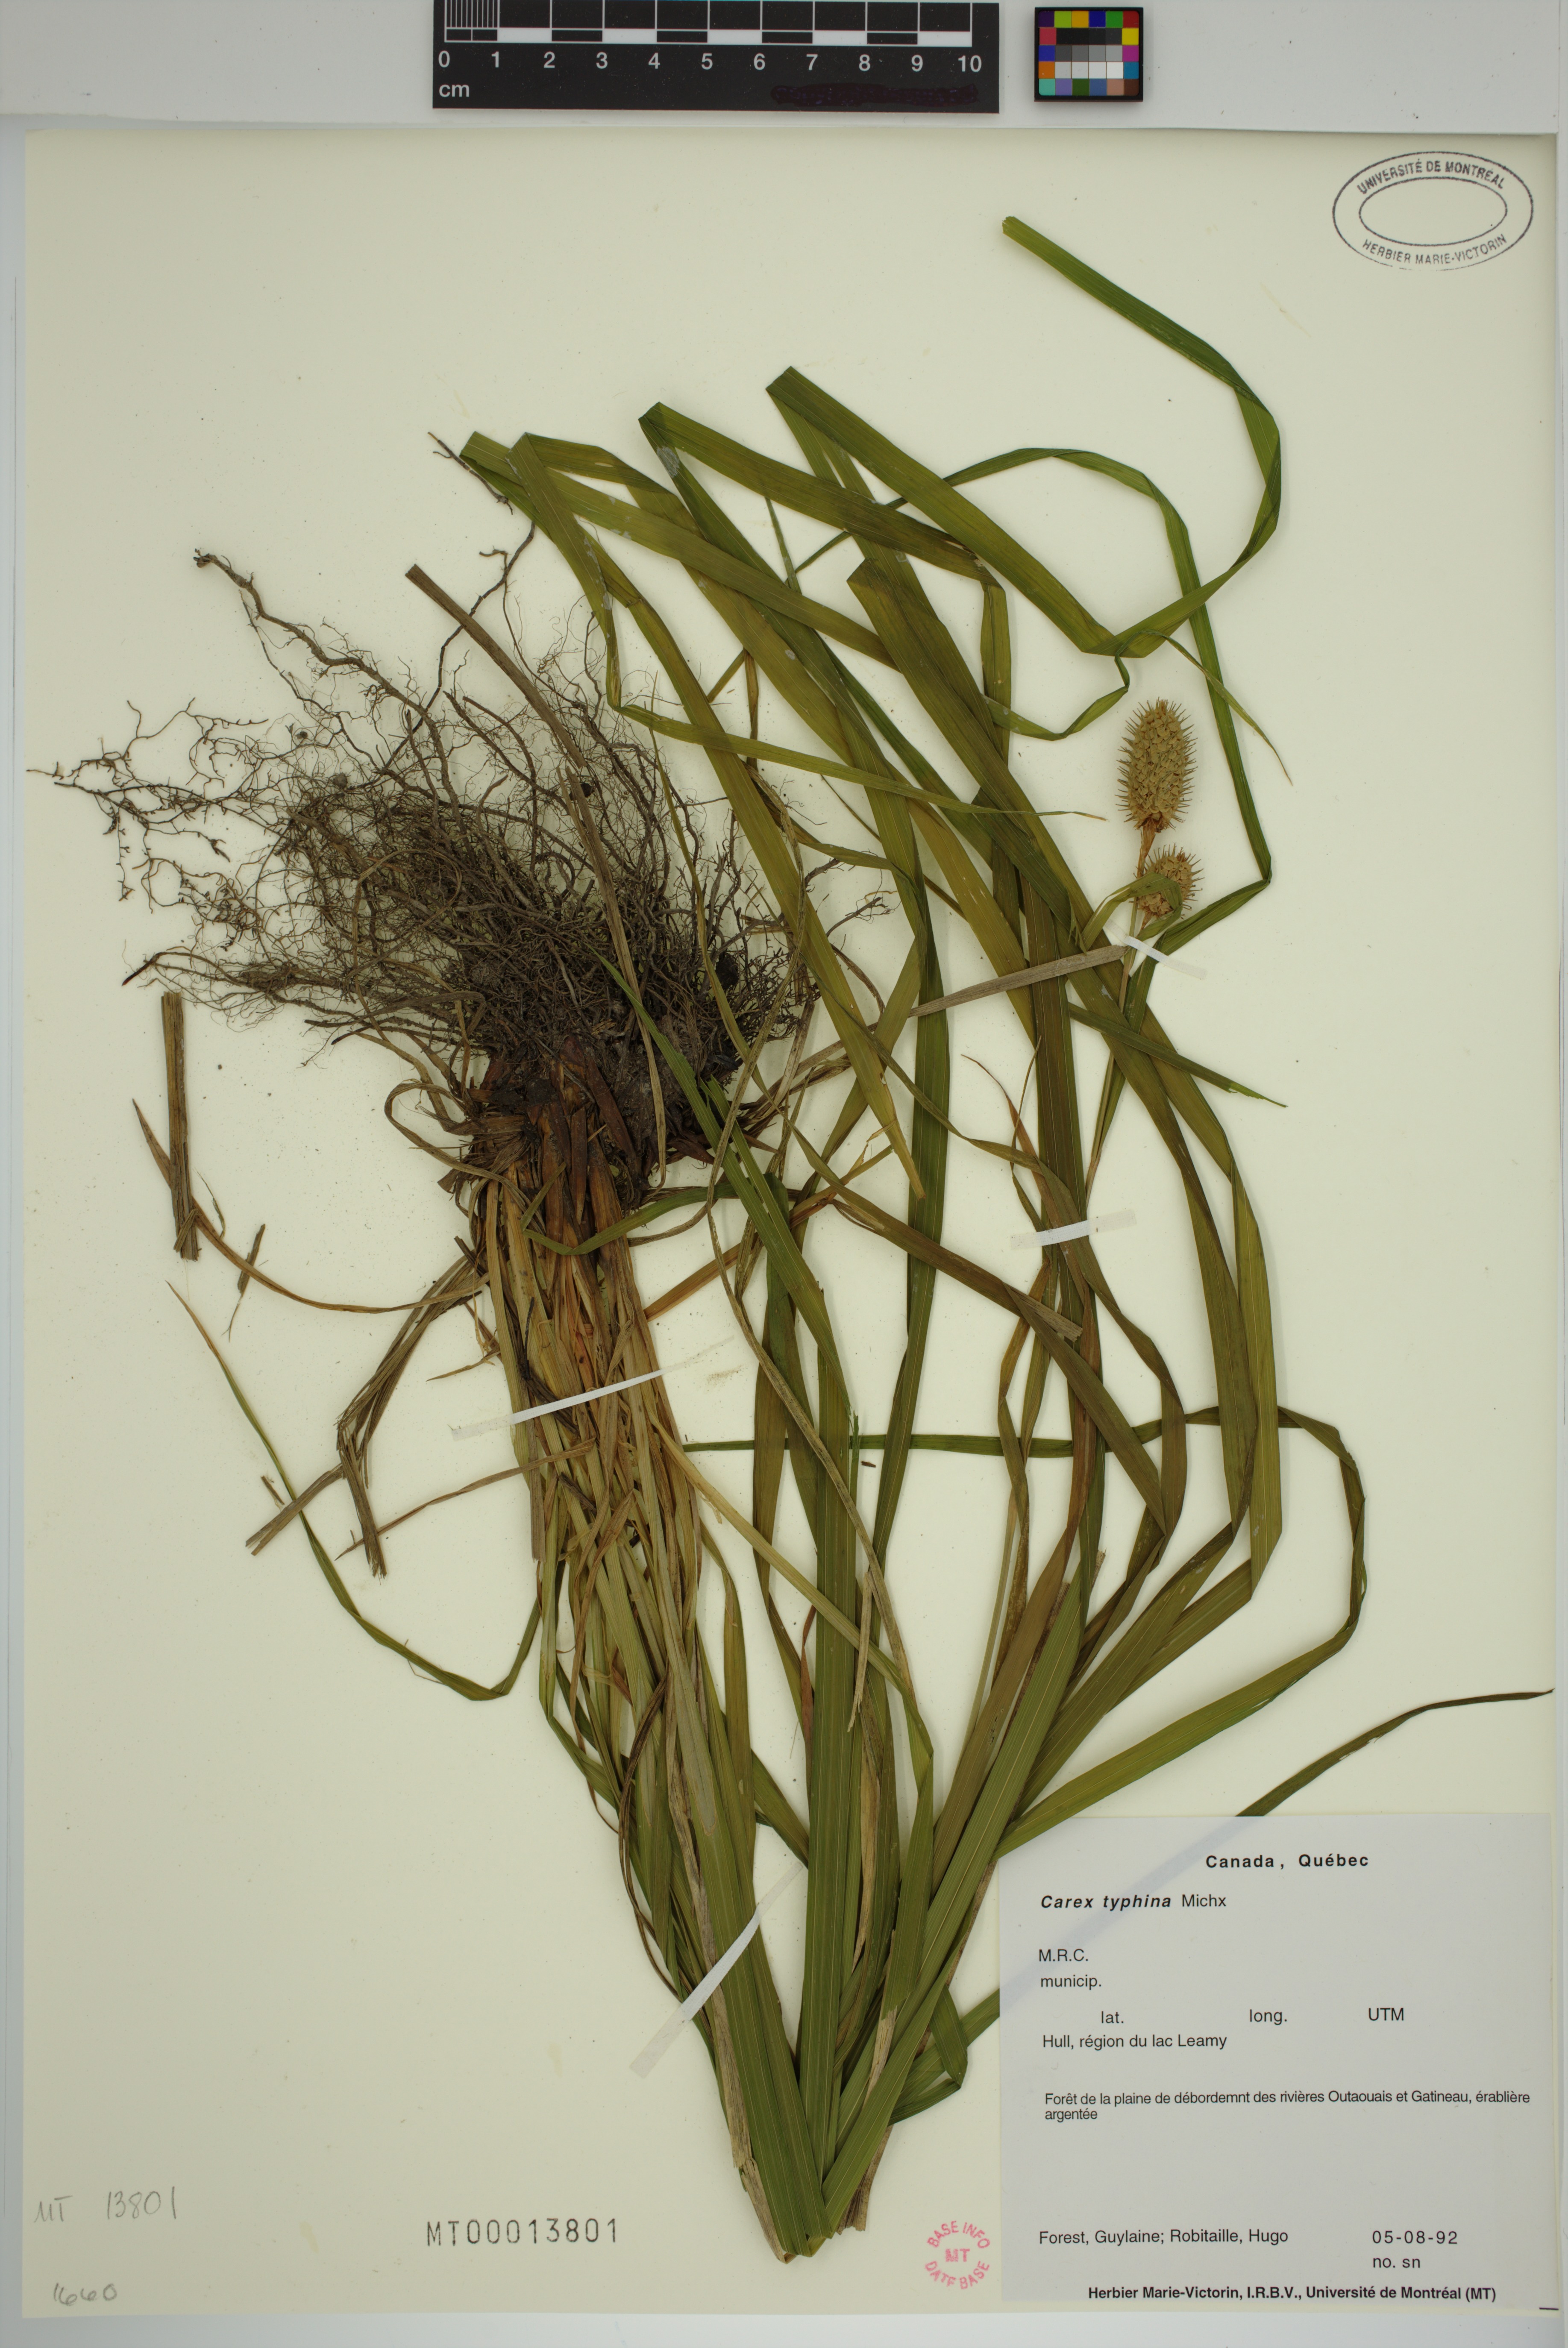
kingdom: Plantae
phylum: Tracheophyta
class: Liliopsida
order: Poales
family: Cyperaceae
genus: Carex
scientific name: Carex typhina
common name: Cattail sedge
